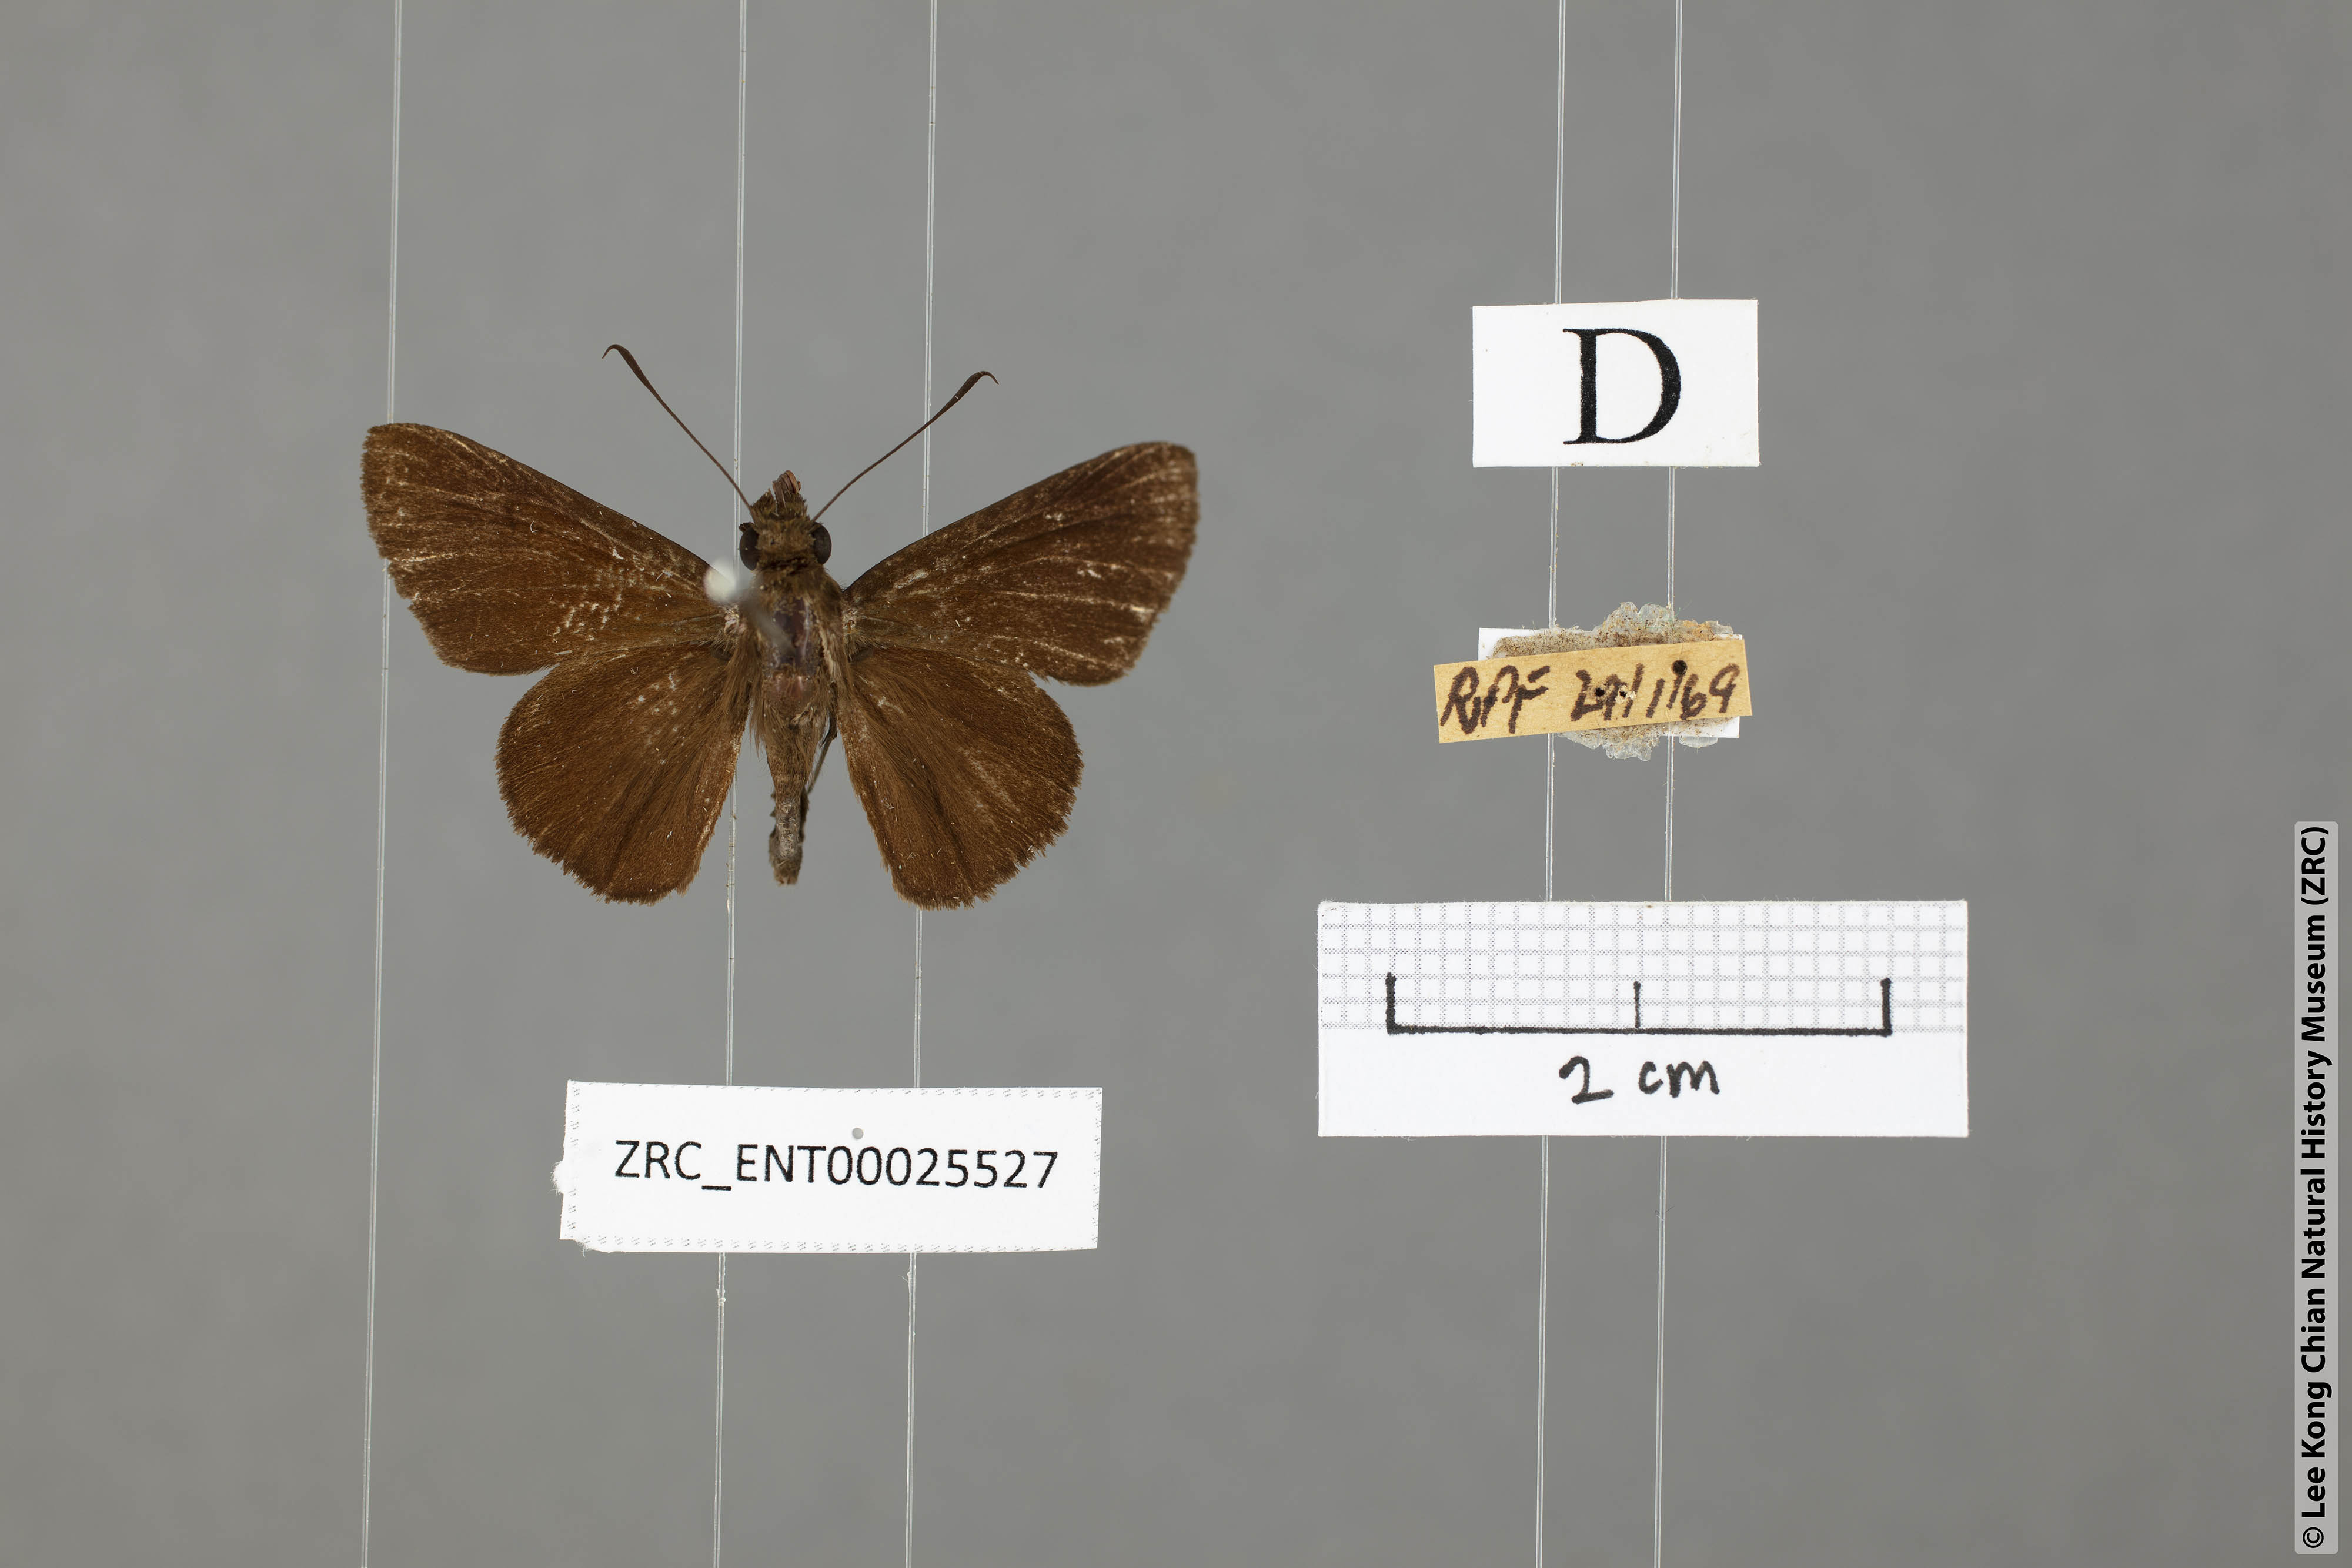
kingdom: Animalia
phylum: Arthropoda
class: Insecta
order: Lepidoptera
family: Hesperiidae
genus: Quedara
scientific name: Quedara monteithi
